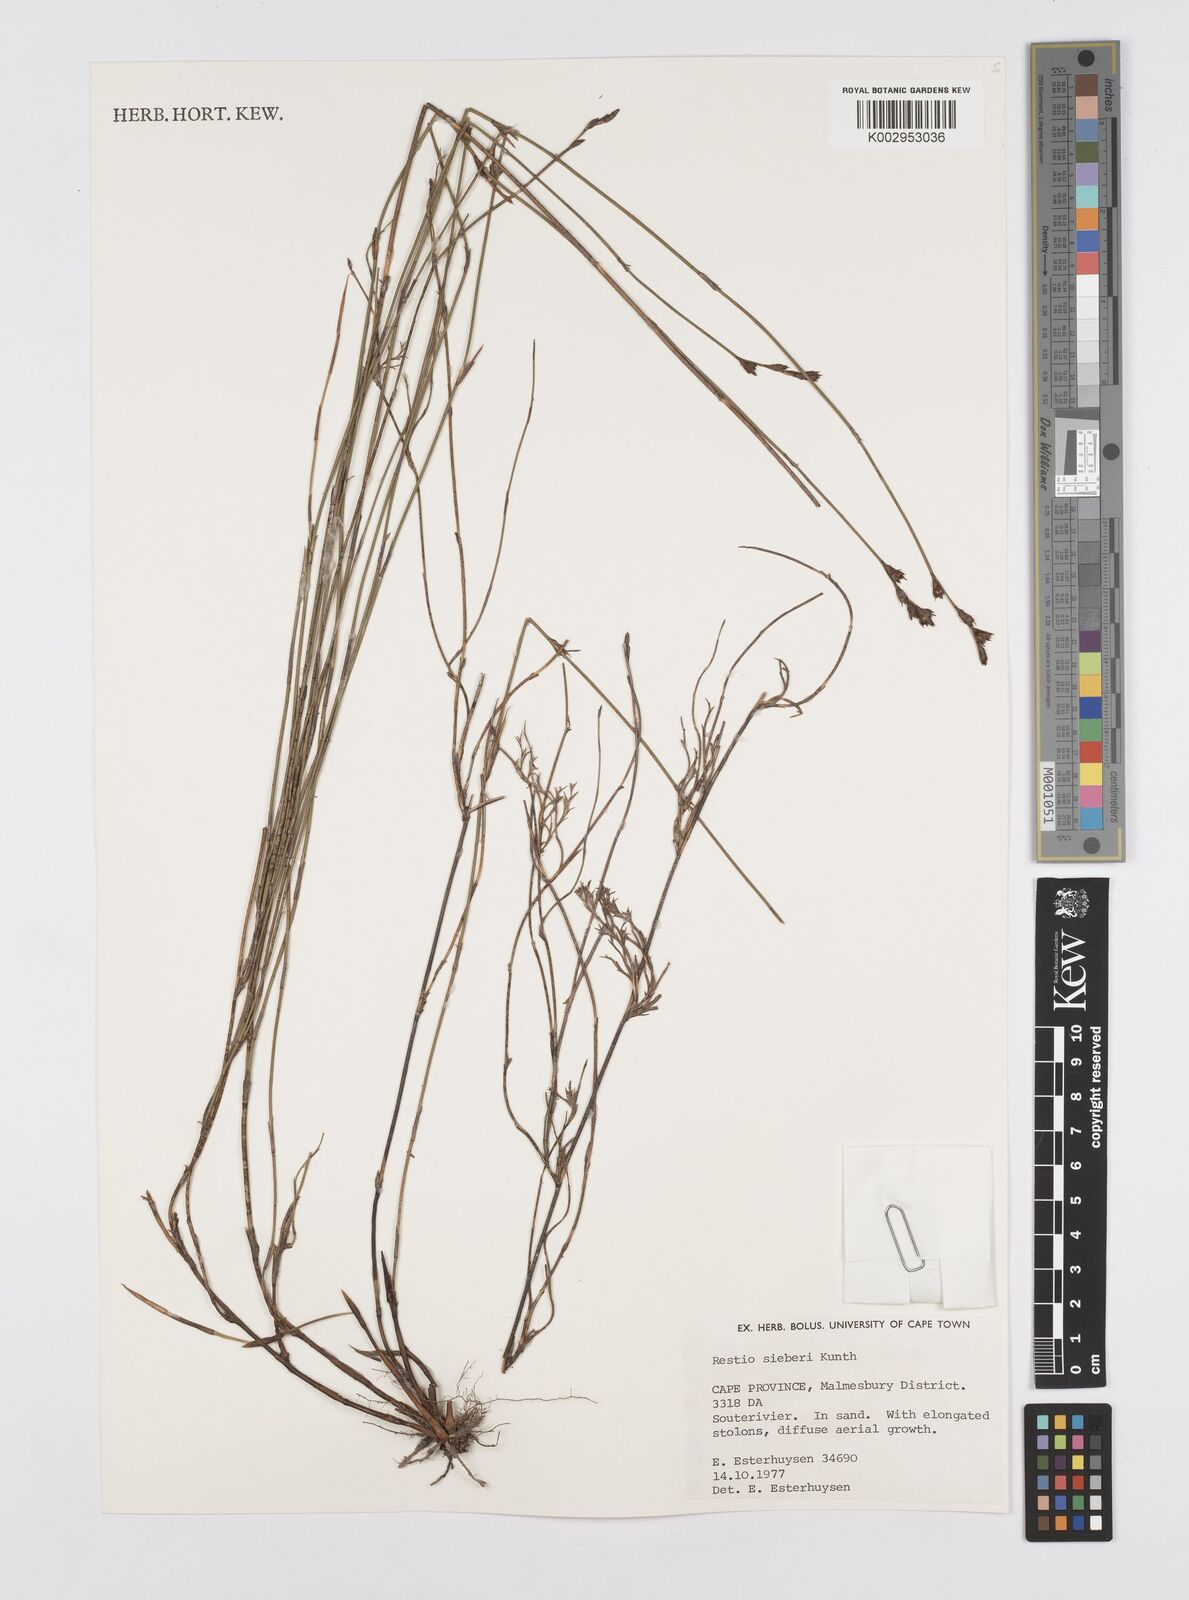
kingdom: Plantae
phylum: Tracheophyta
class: Liliopsida
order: Poales
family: Restionaceae
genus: Restio
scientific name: Restio sieberi
